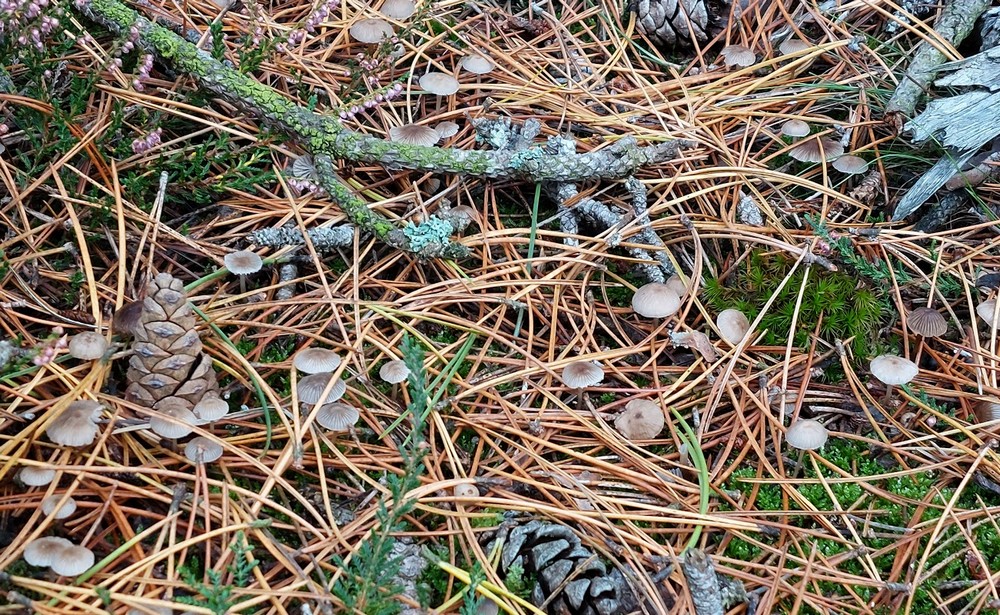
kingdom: Fungi
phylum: Basidiomycota
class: Agaricomycetes
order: Agaricales
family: Mycenaceae
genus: Mycena
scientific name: Mycena clavicularis
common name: fyrre-huesvamp
